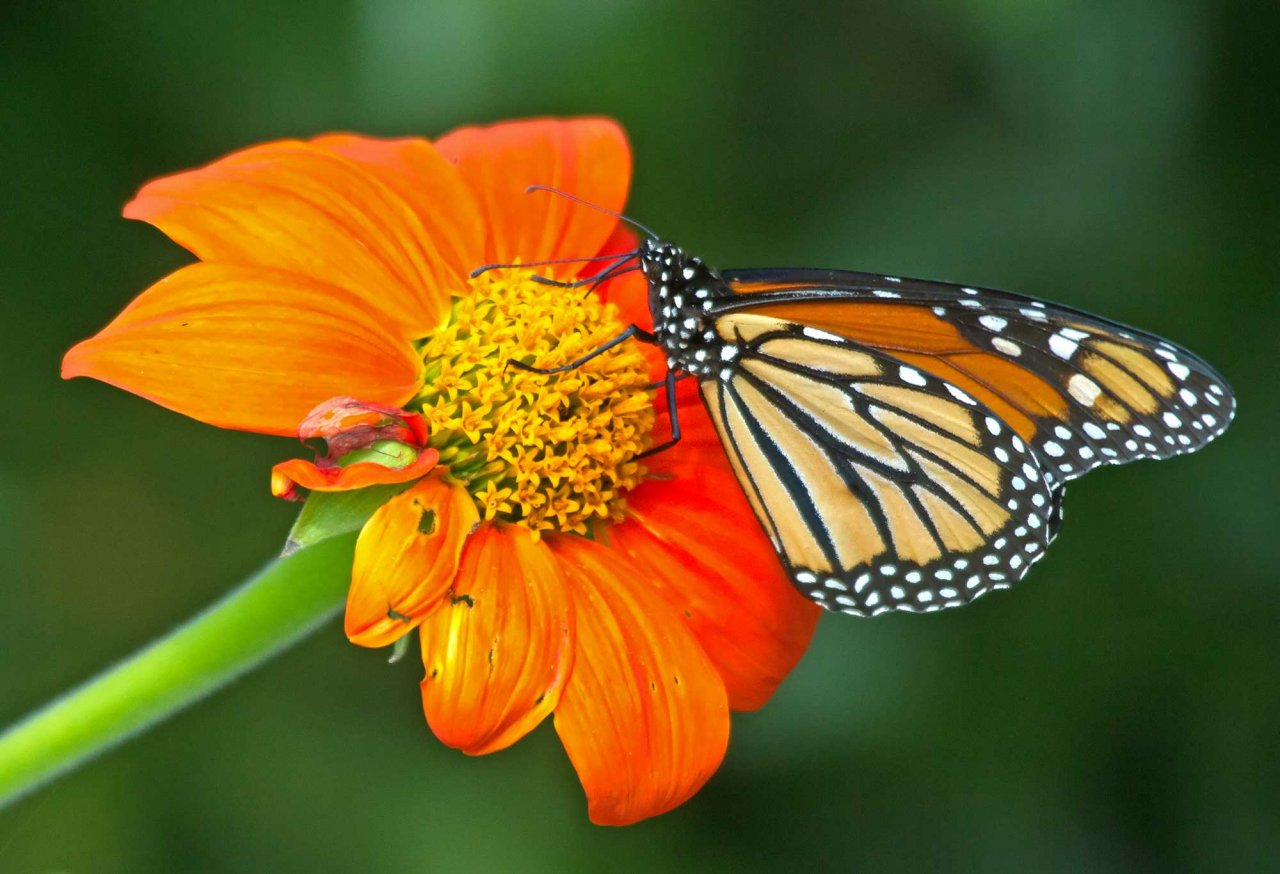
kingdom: Animalia
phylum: Arthropoda
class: Insecta
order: Lepidoptera
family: Nymphalidae
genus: Danaus
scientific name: Danaus plexippus
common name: Monarch
